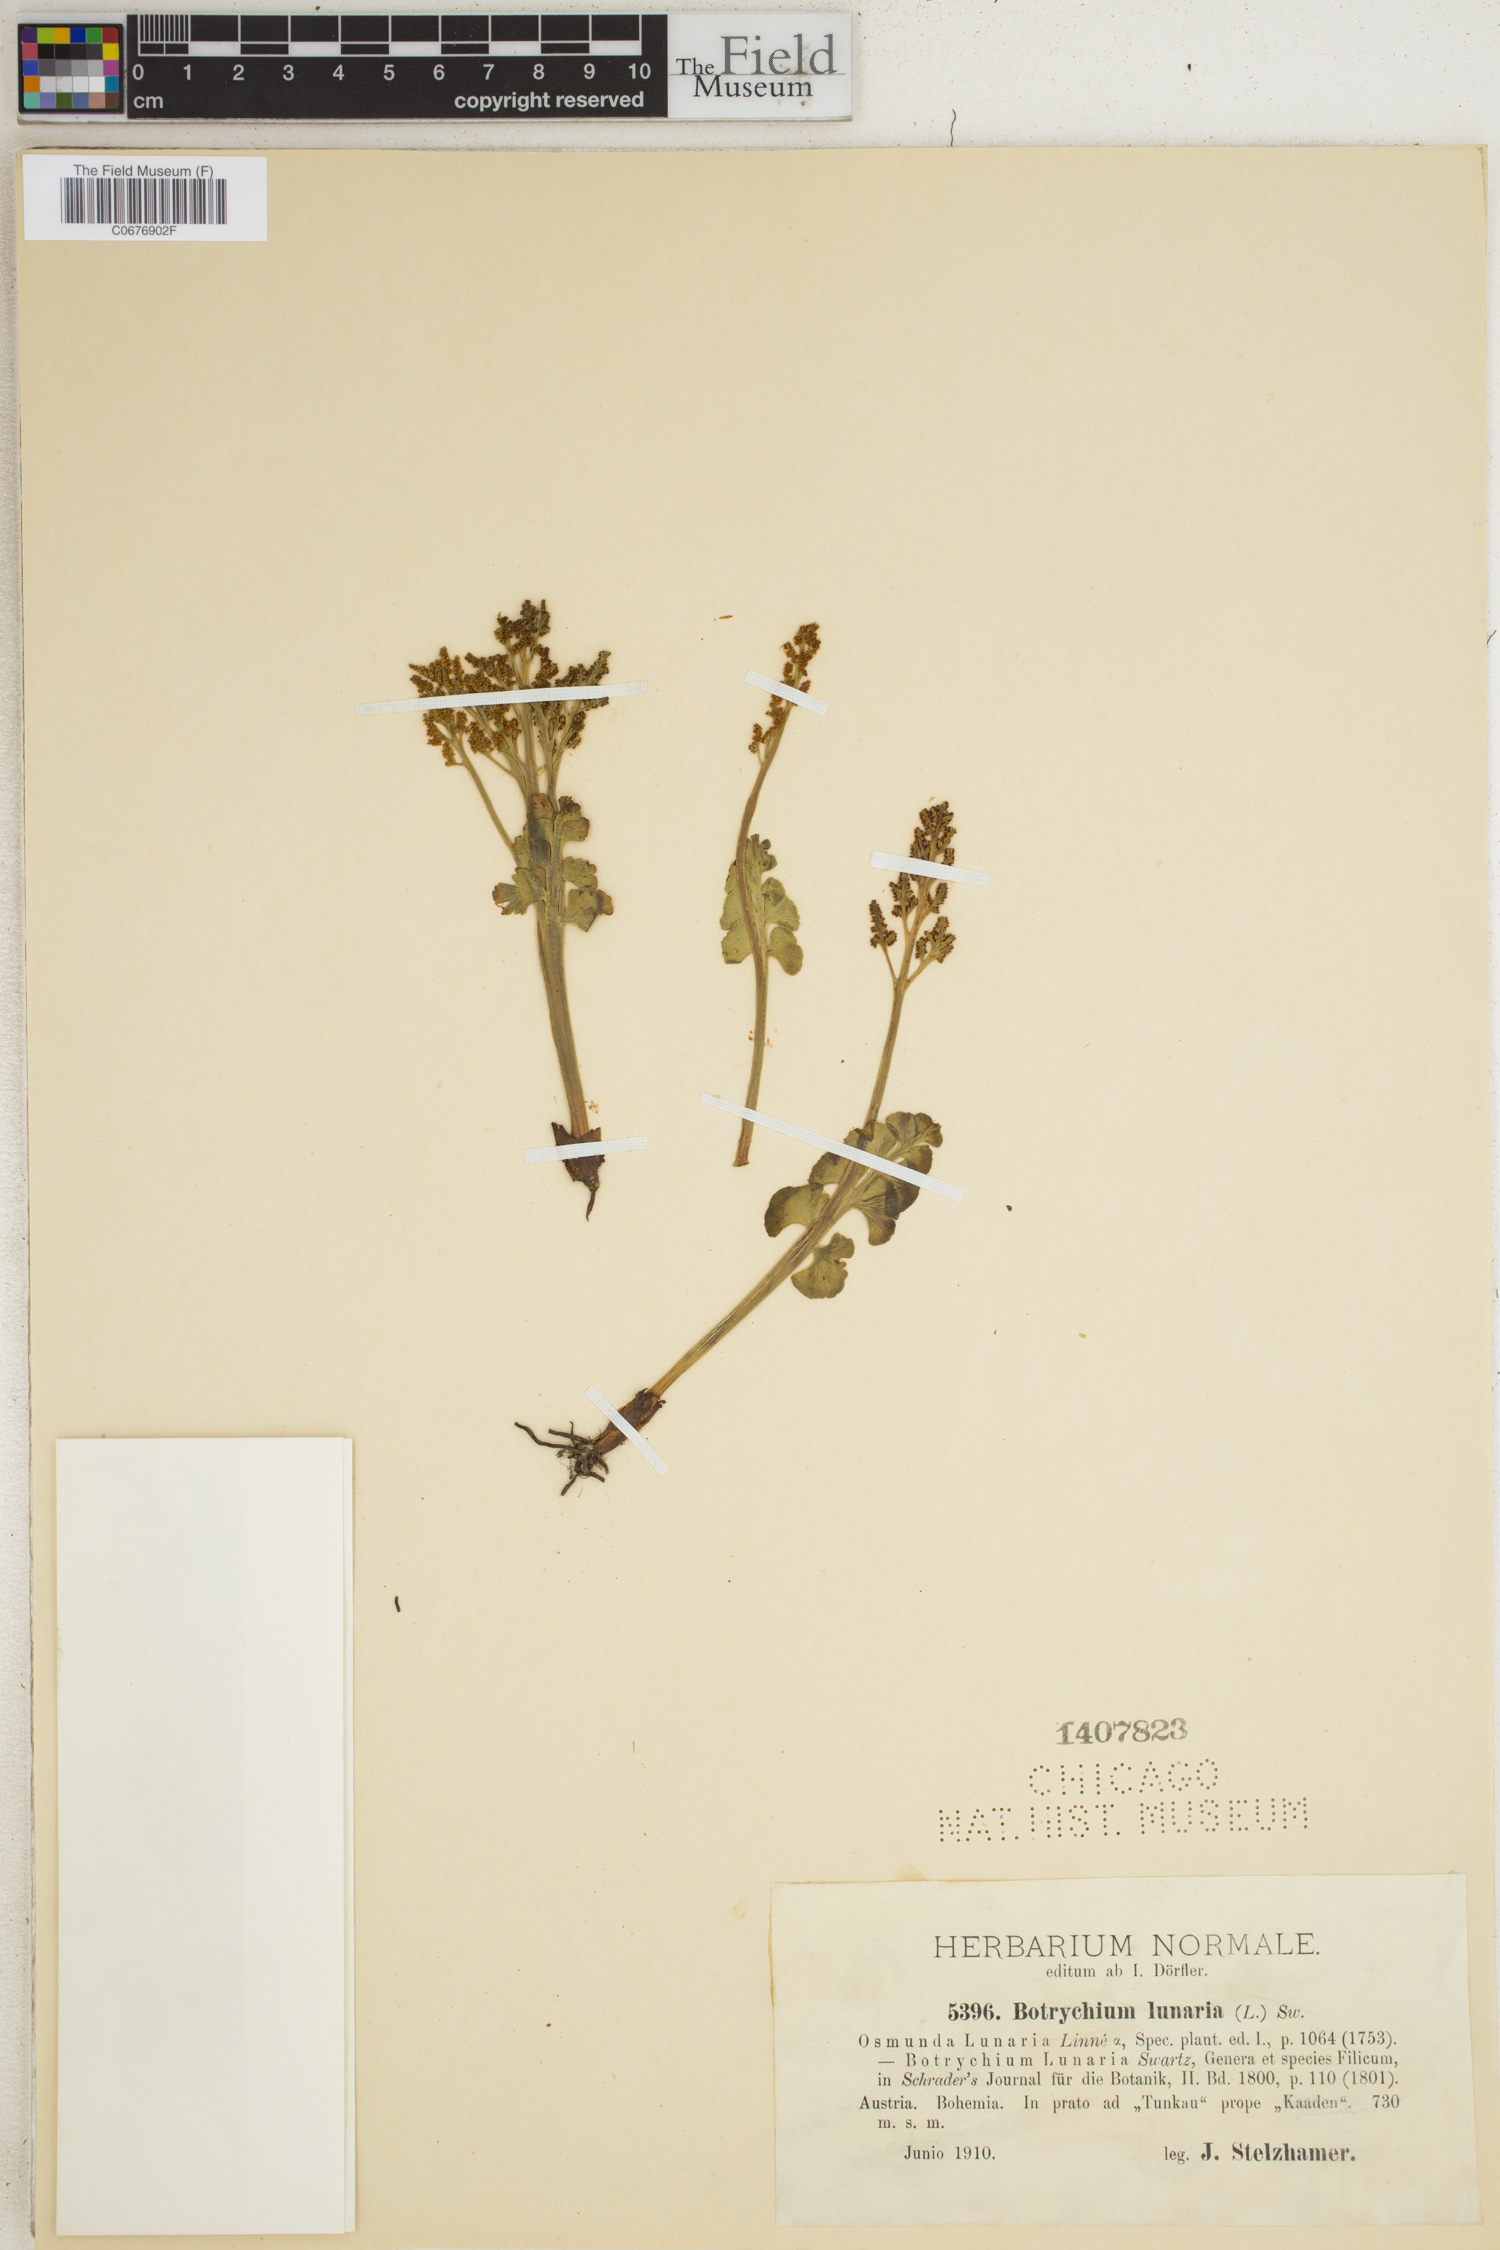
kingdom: Plantae
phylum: Tracheophyta
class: Polypodiopsida
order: Ophioglossales
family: Ophioglossaceae
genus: Botrychium
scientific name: Botrychium lunaria
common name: Moonwort
